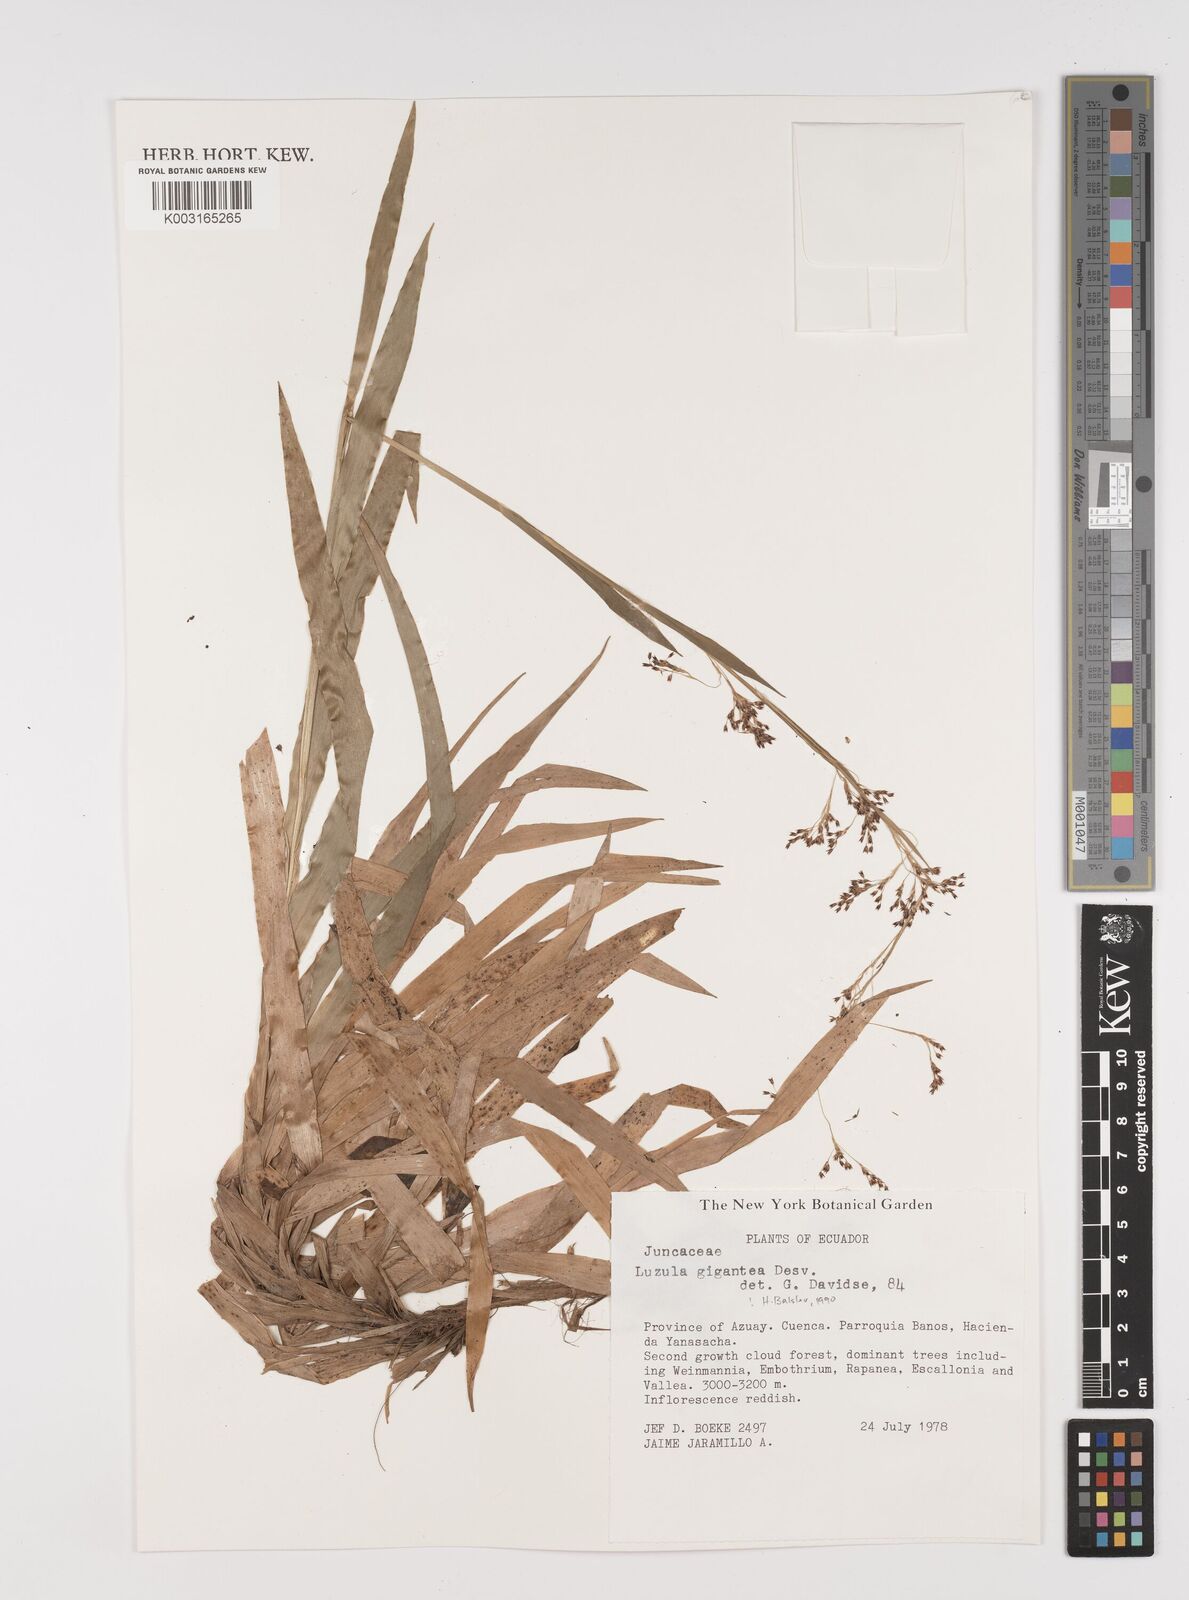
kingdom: Plantae
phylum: Tracheophyta
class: Liliopsida
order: Poales
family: Juncaceae
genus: Luzula
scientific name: Luzula gigantea
